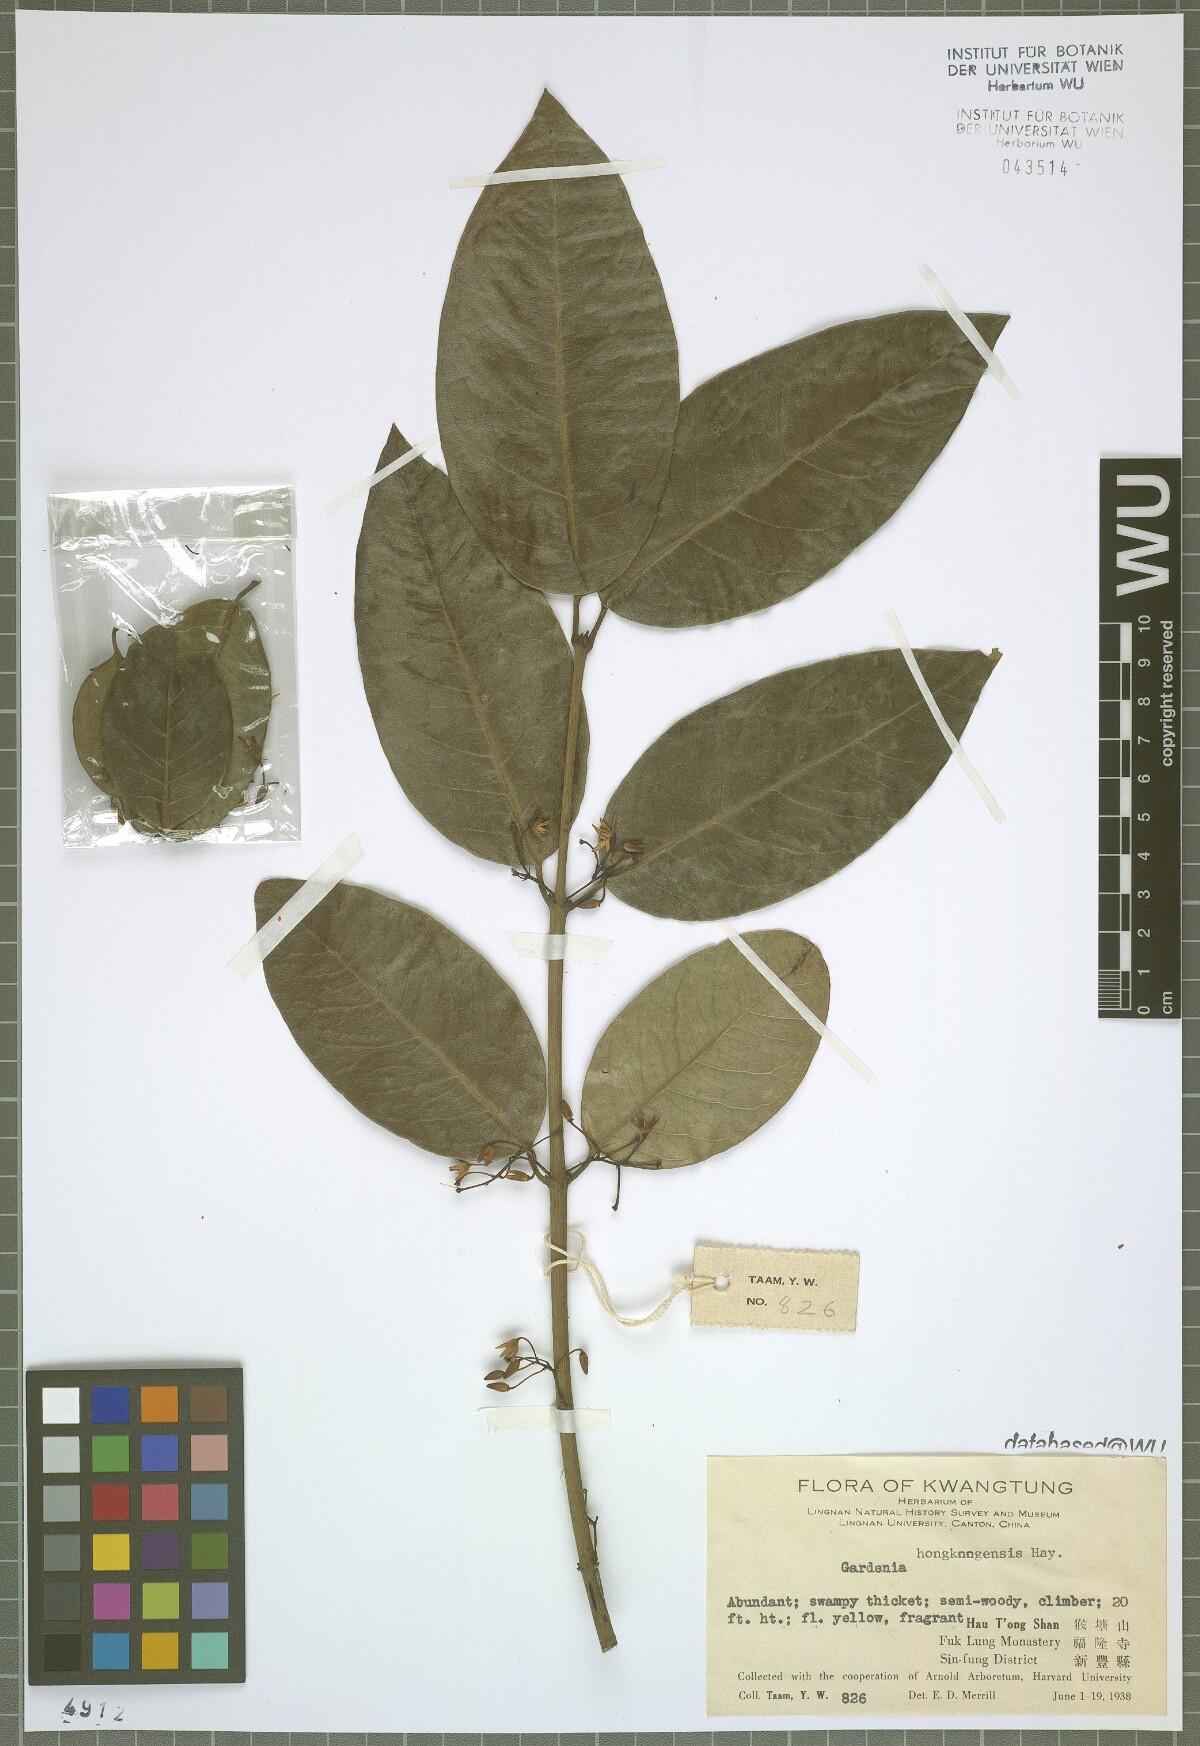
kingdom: Plantae
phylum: Tracheophyta
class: Magnoliopsida
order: Gentianales
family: Rubiaceae
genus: Gardenia
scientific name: Gardenia
